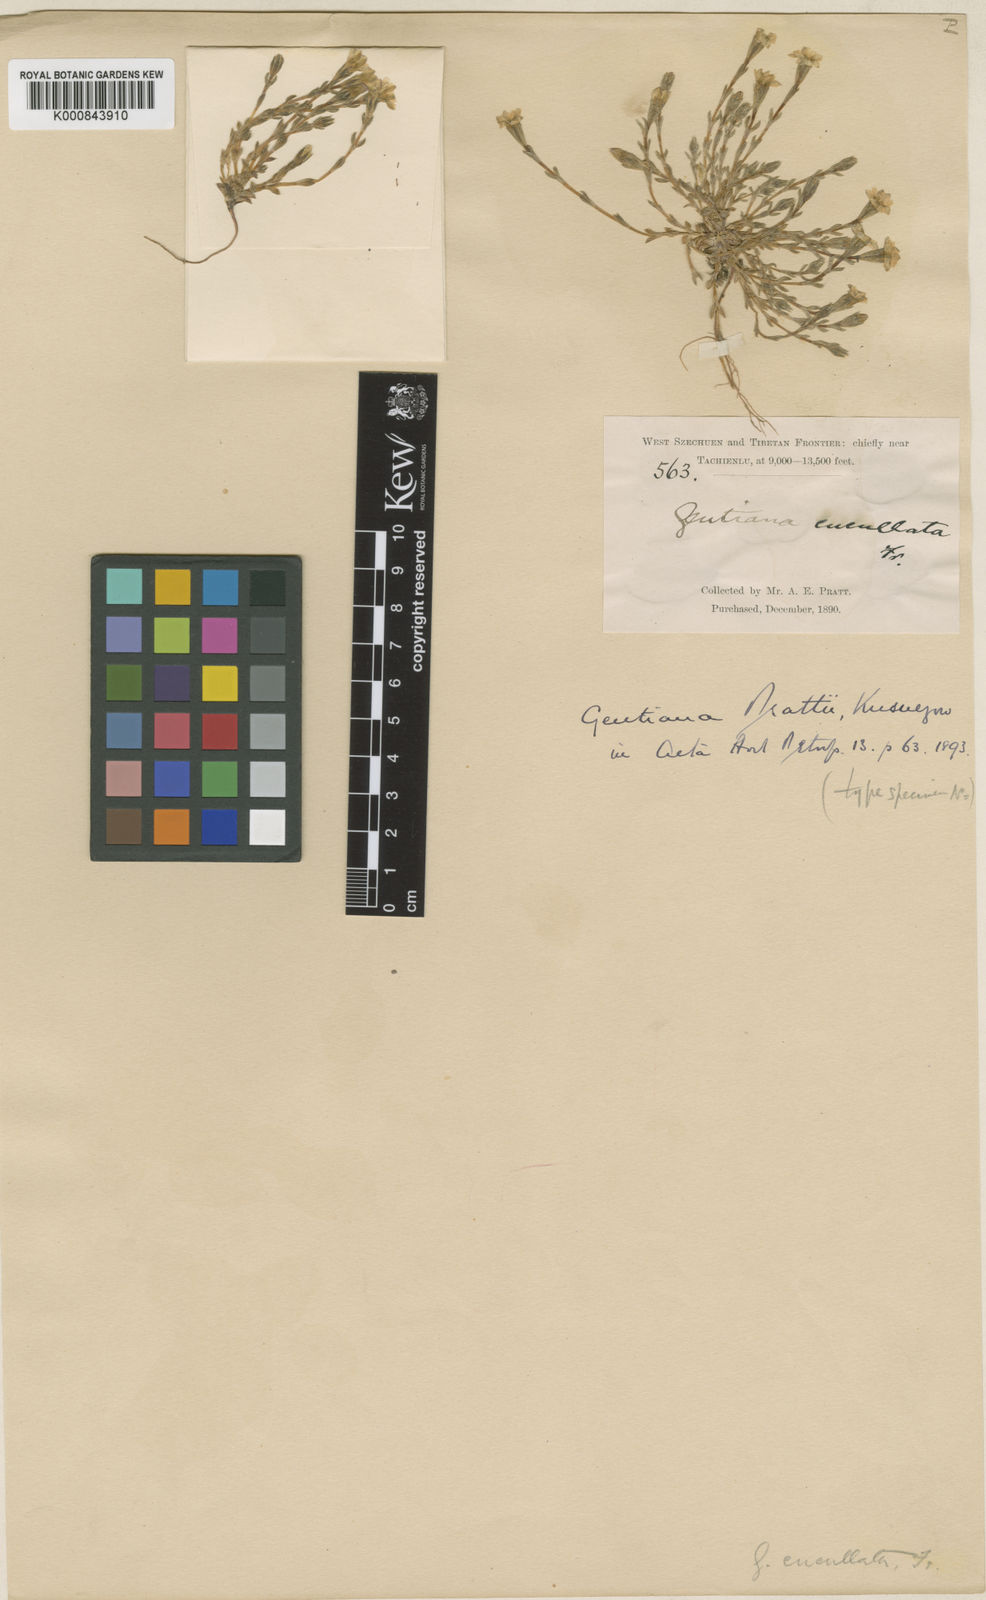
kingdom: Plantae
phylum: Tracheophyta
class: Magnoliopsida
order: Gentianales
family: Gentianaceae
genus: Gentiana
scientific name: Gentiana prattii
